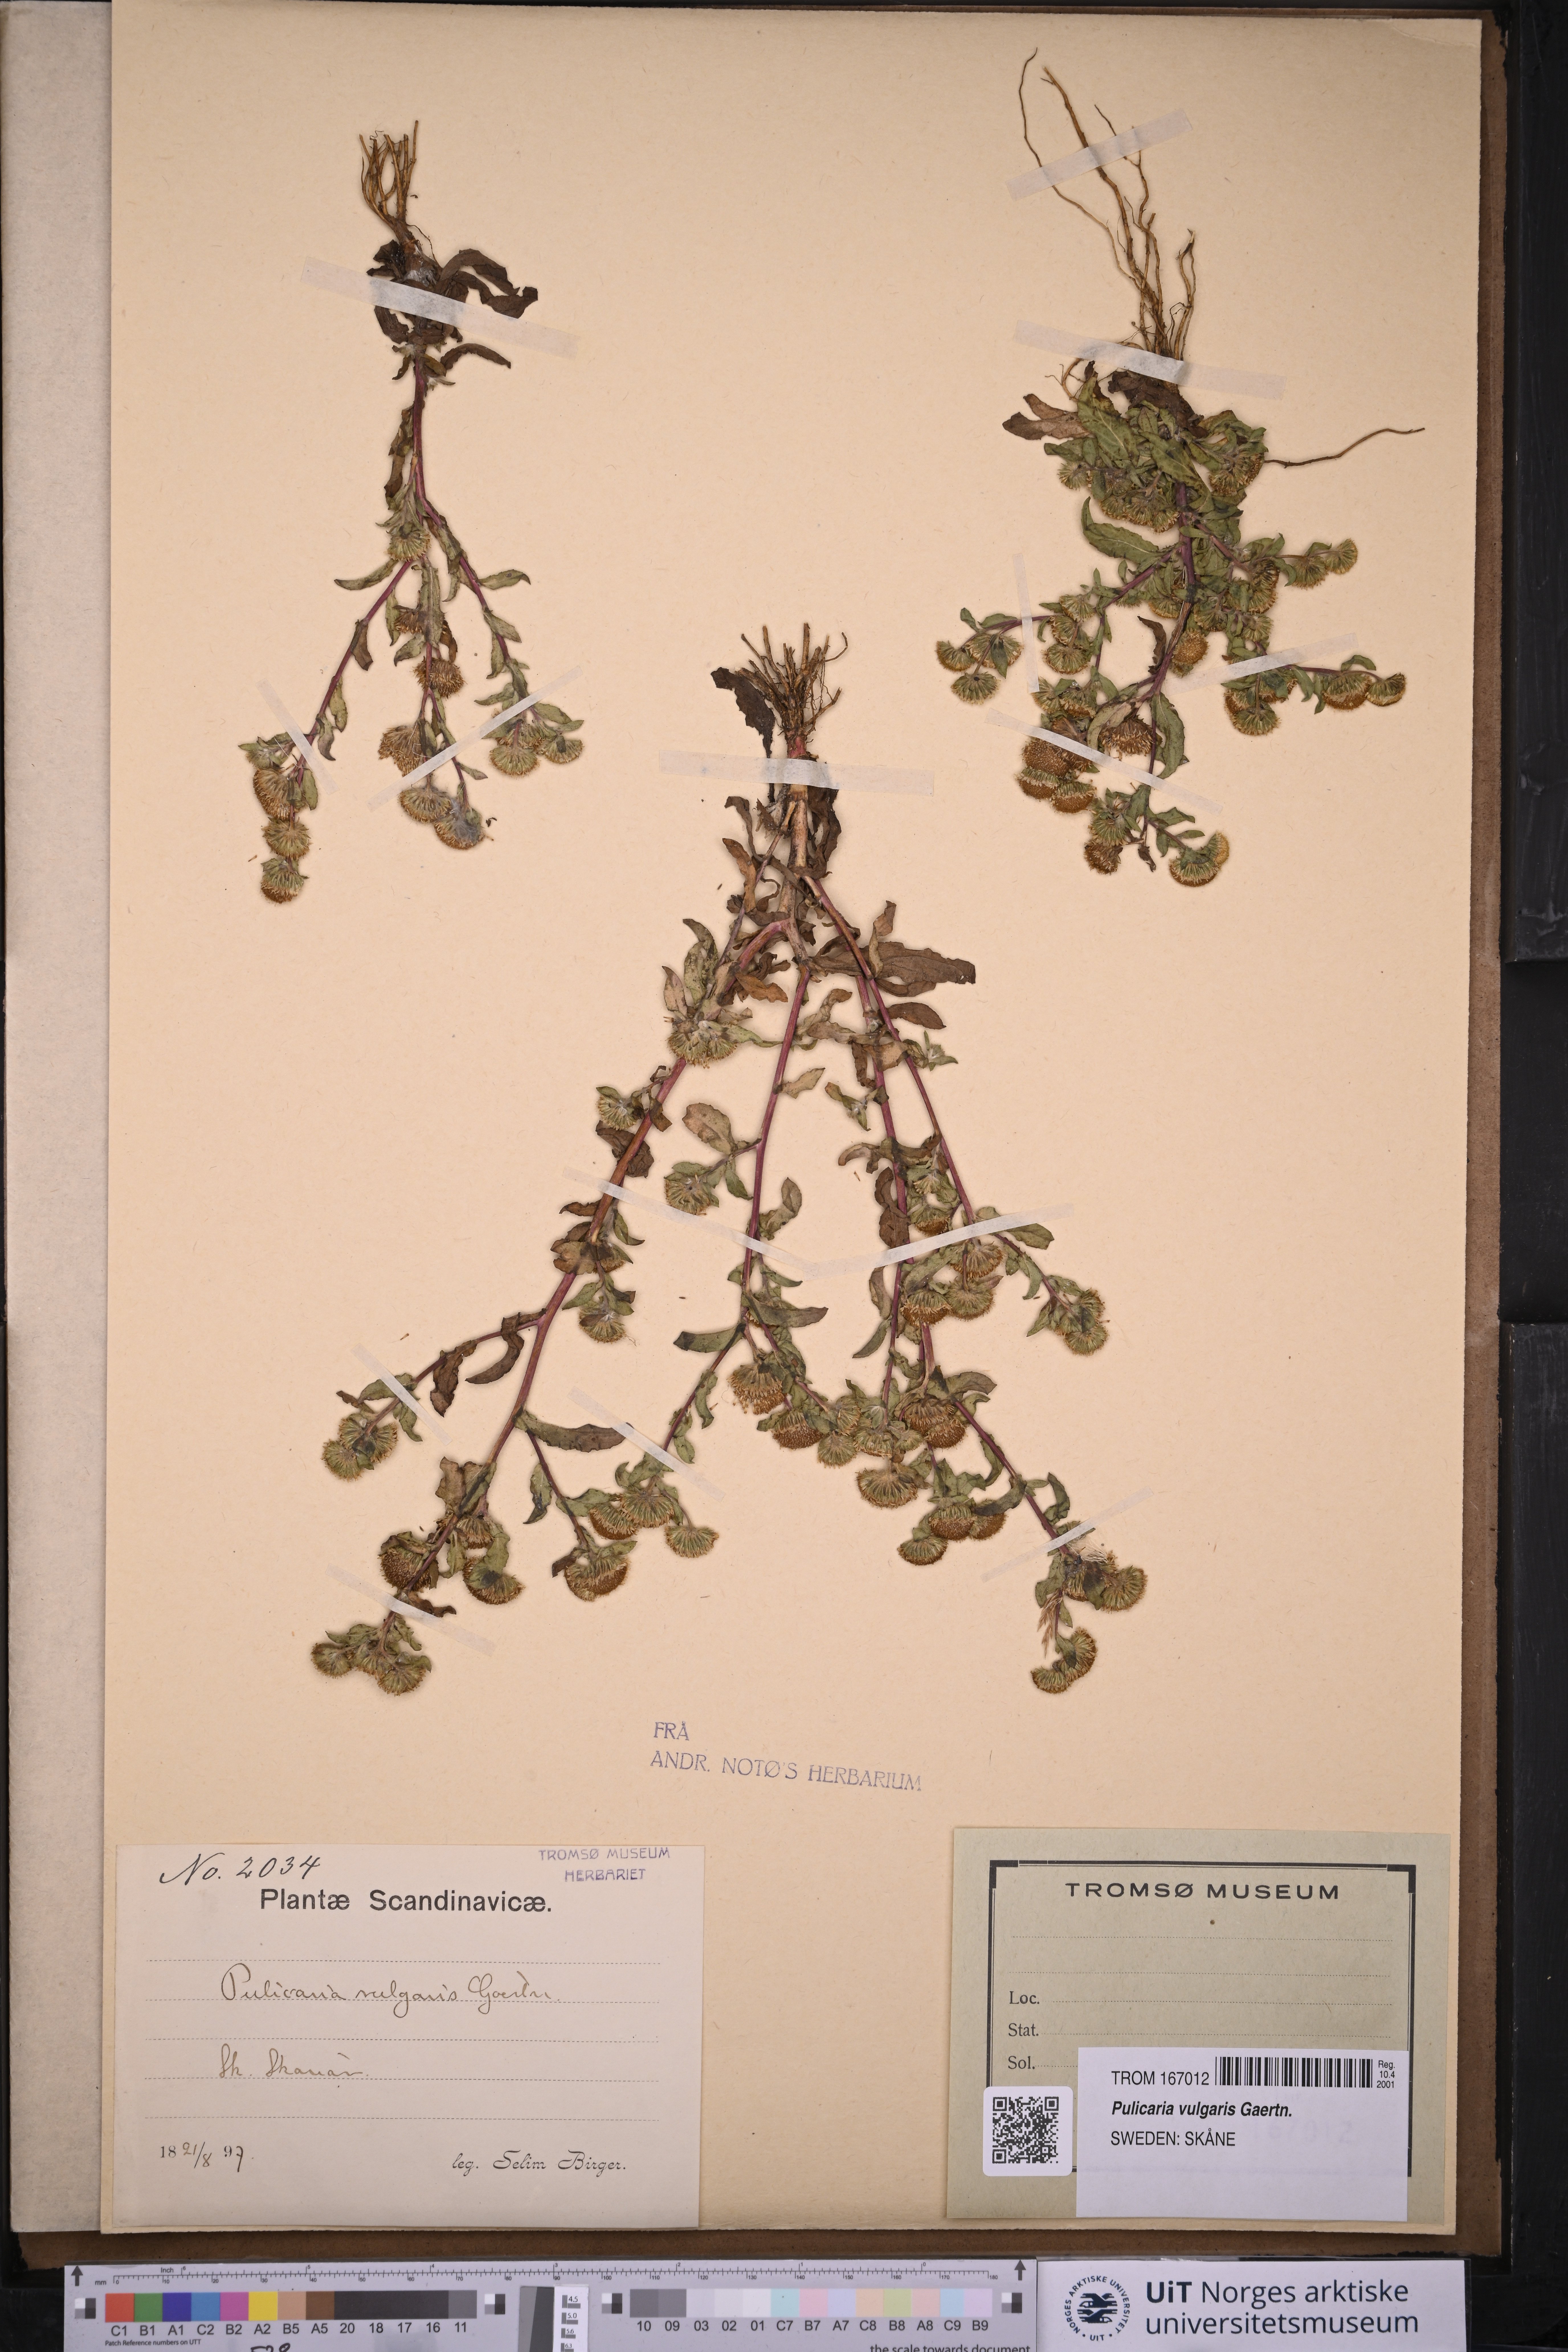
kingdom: Plantae
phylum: Tracheophyta
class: Magnoliopsida
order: Asterales
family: Asteraceae
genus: Pulicaria
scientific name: Pulicaria vulgaris
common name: Small fleabane
